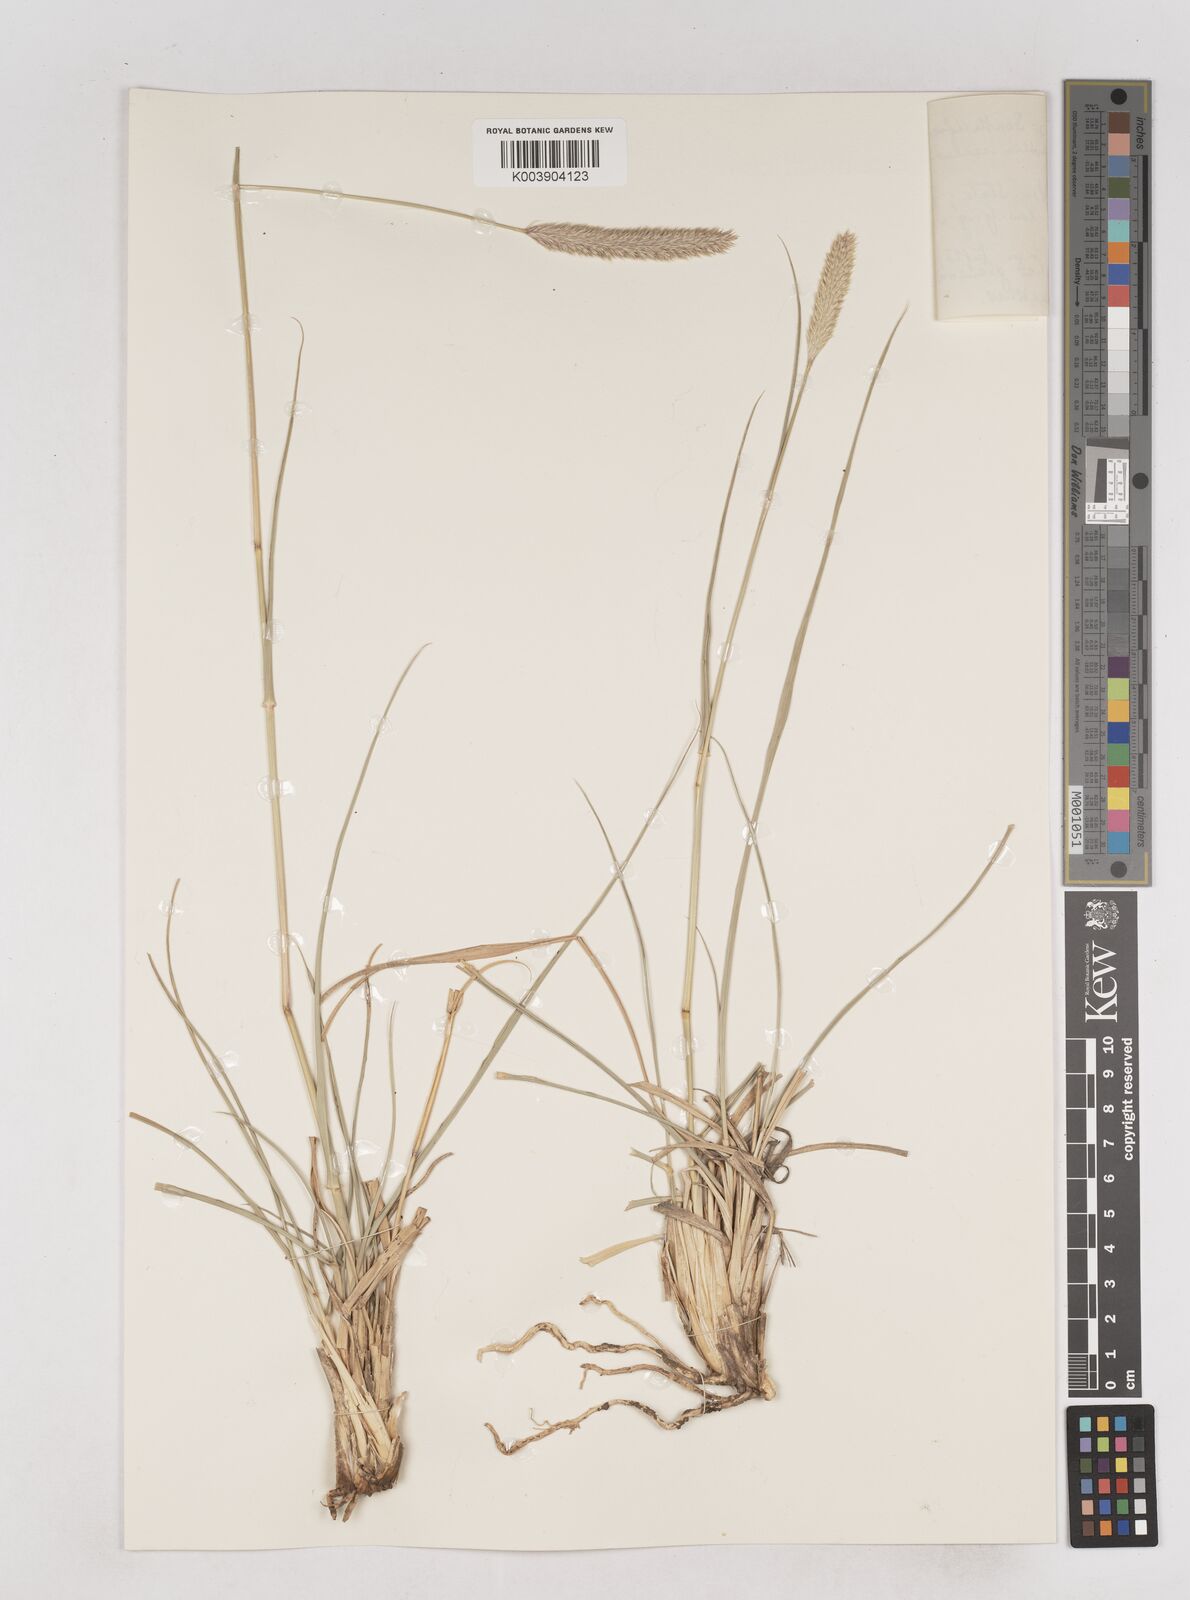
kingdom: Plantae
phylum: Tracheophyta
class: Liliopsida
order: Poales
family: Poaceae
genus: Fingerhuthia
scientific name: Fingerhuthia sesleriiformis
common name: Thimble grass
